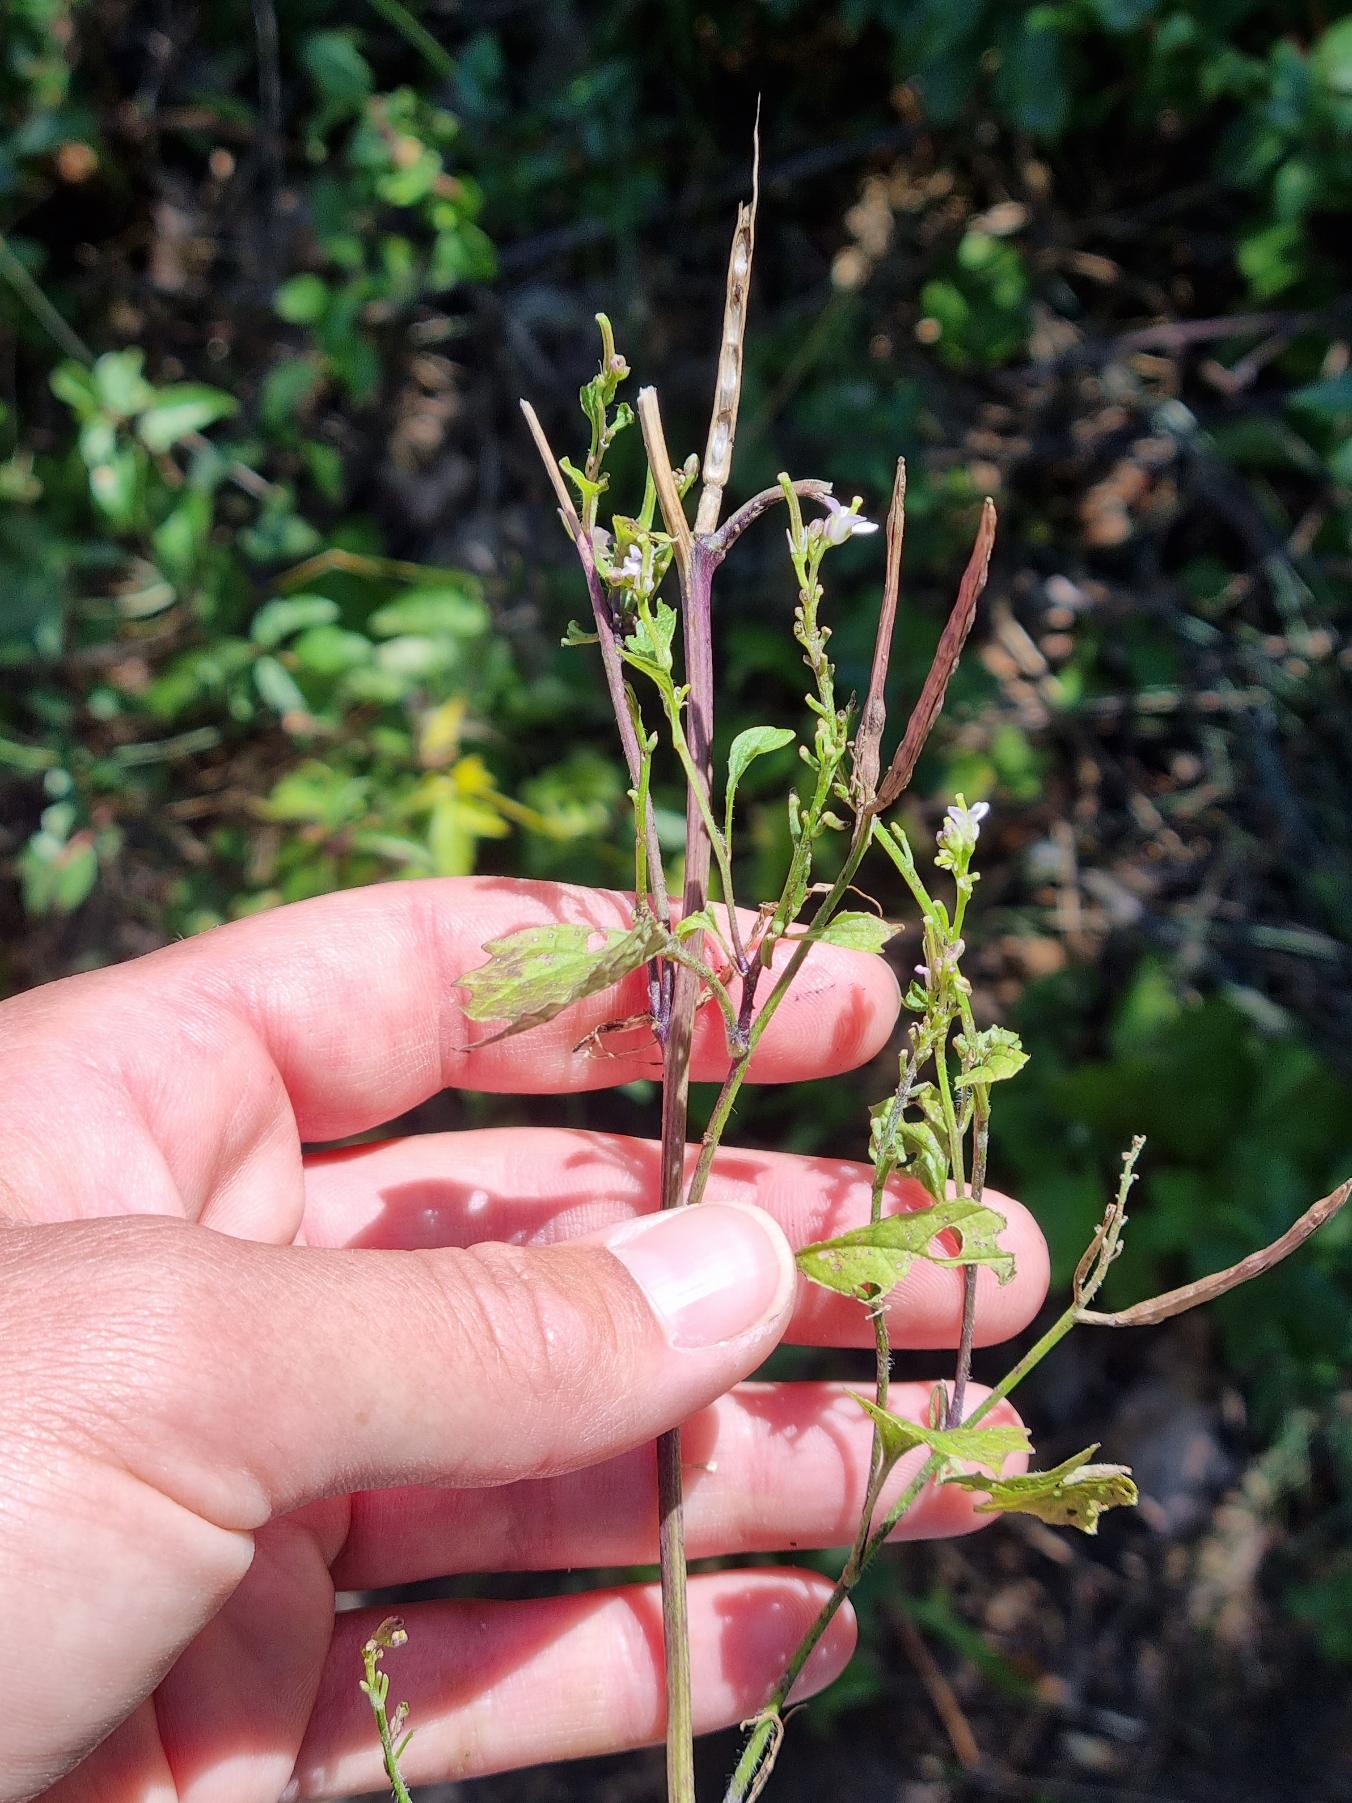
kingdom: Plantae
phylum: Tracheophyta
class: Magnoliopsida
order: Brassicales
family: Brassicaceae
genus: Alliaria
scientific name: Alliaria petiolata
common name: Løgkarse
